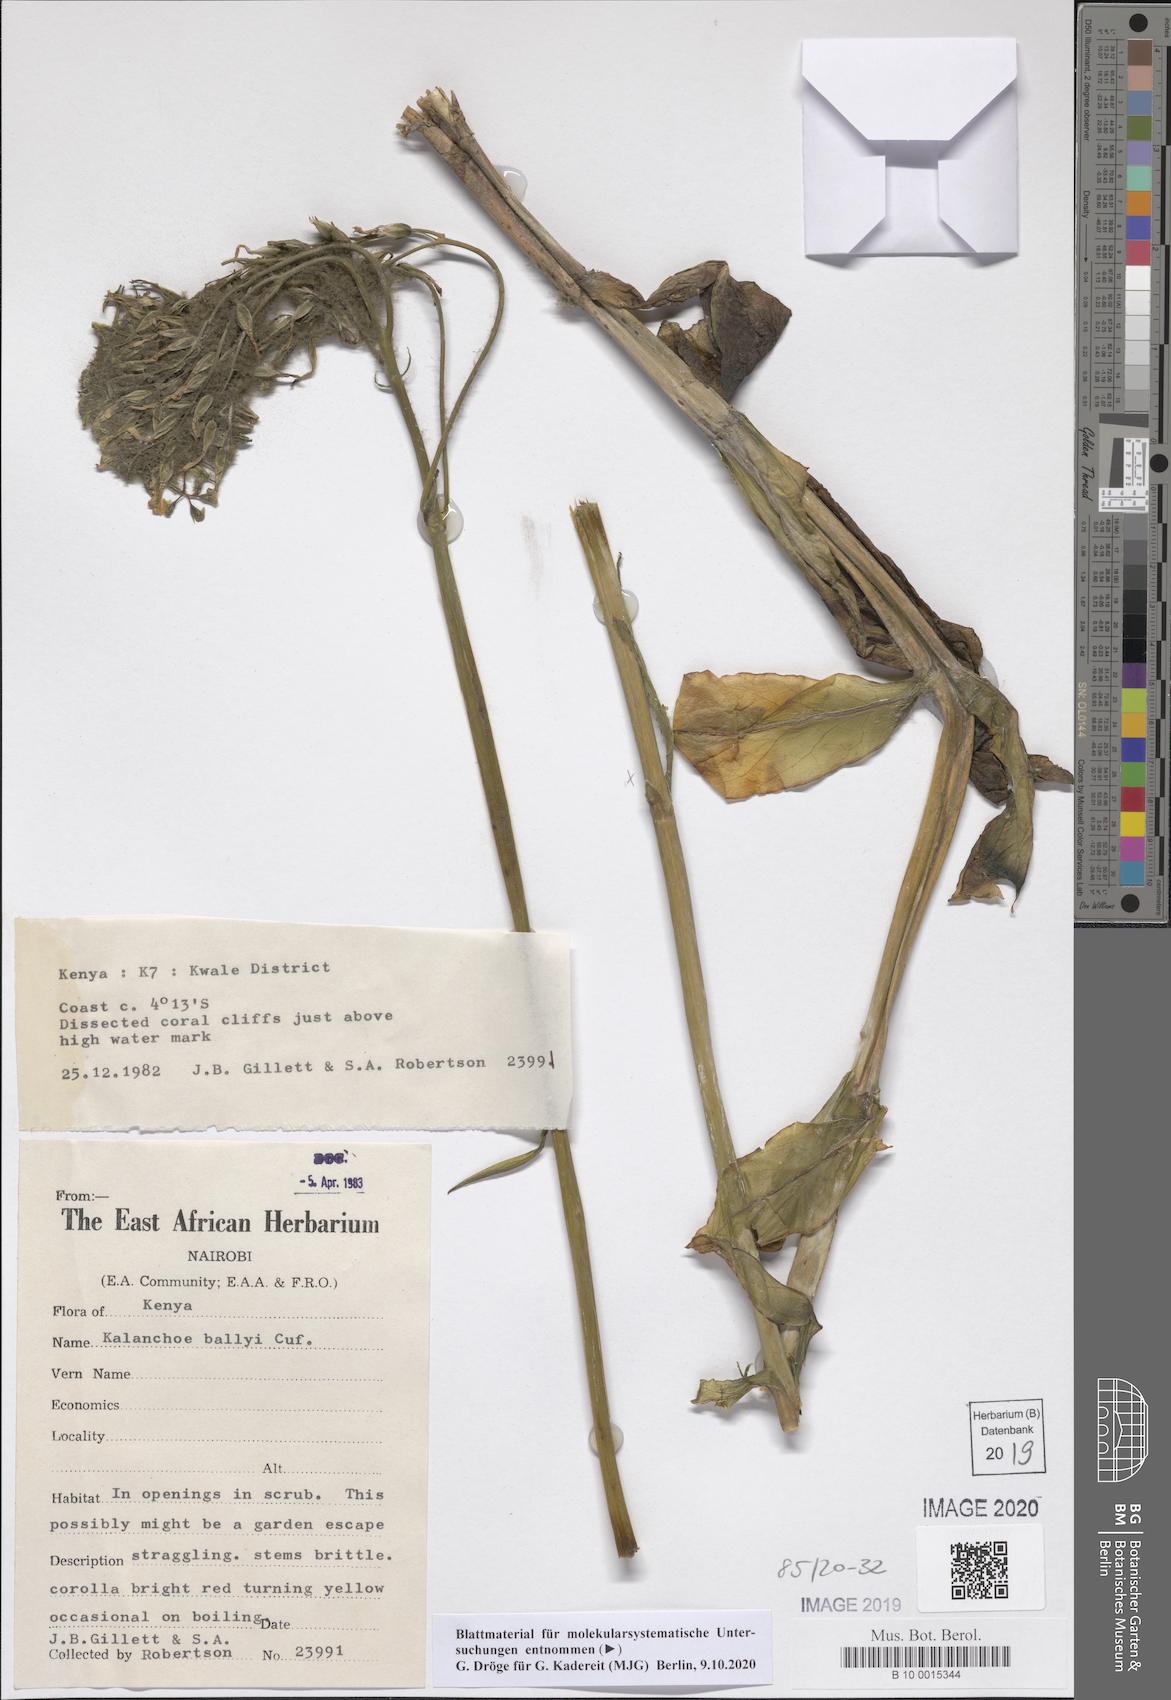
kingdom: Plantae
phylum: Tracheophyta
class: Magnoliopsida
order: Saxifragales
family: Crassulaceae
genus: Kalanchoe
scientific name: Kalanchoe ballyi
